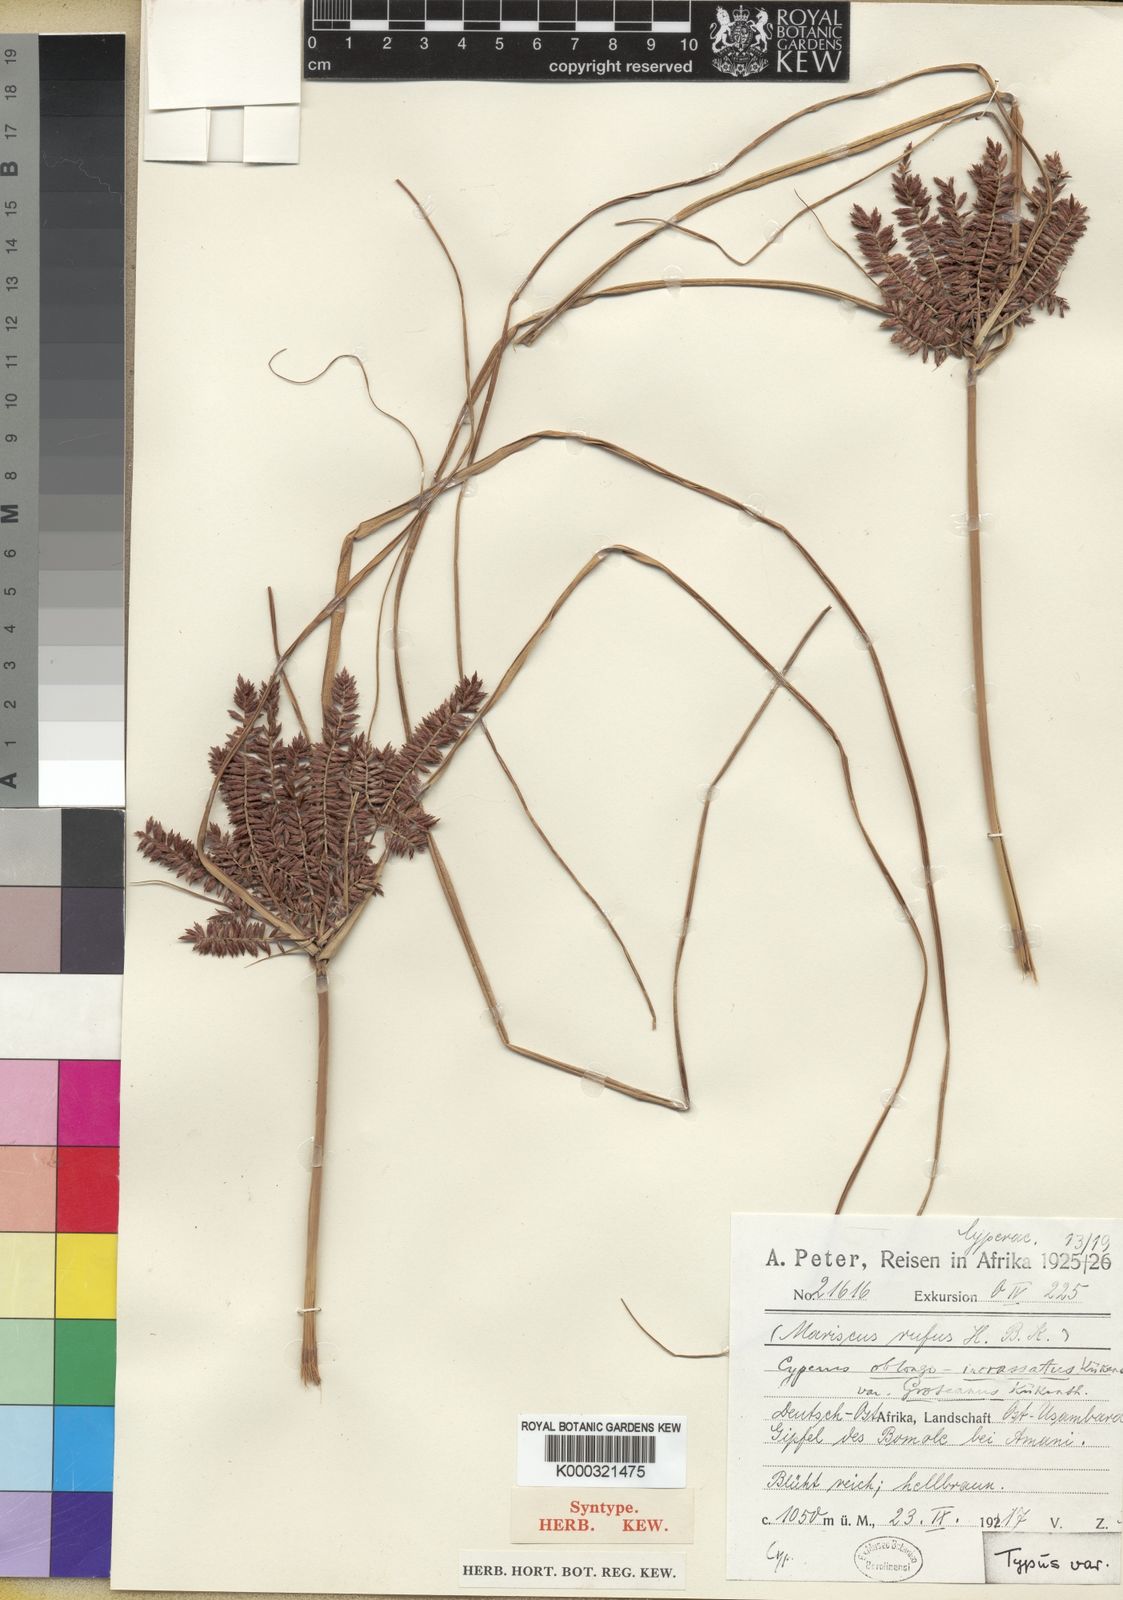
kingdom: Plantae
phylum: Tracheophyta
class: Liliopsida
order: Poales
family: Cyperaceae
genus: Cyperus
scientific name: Cyperus
